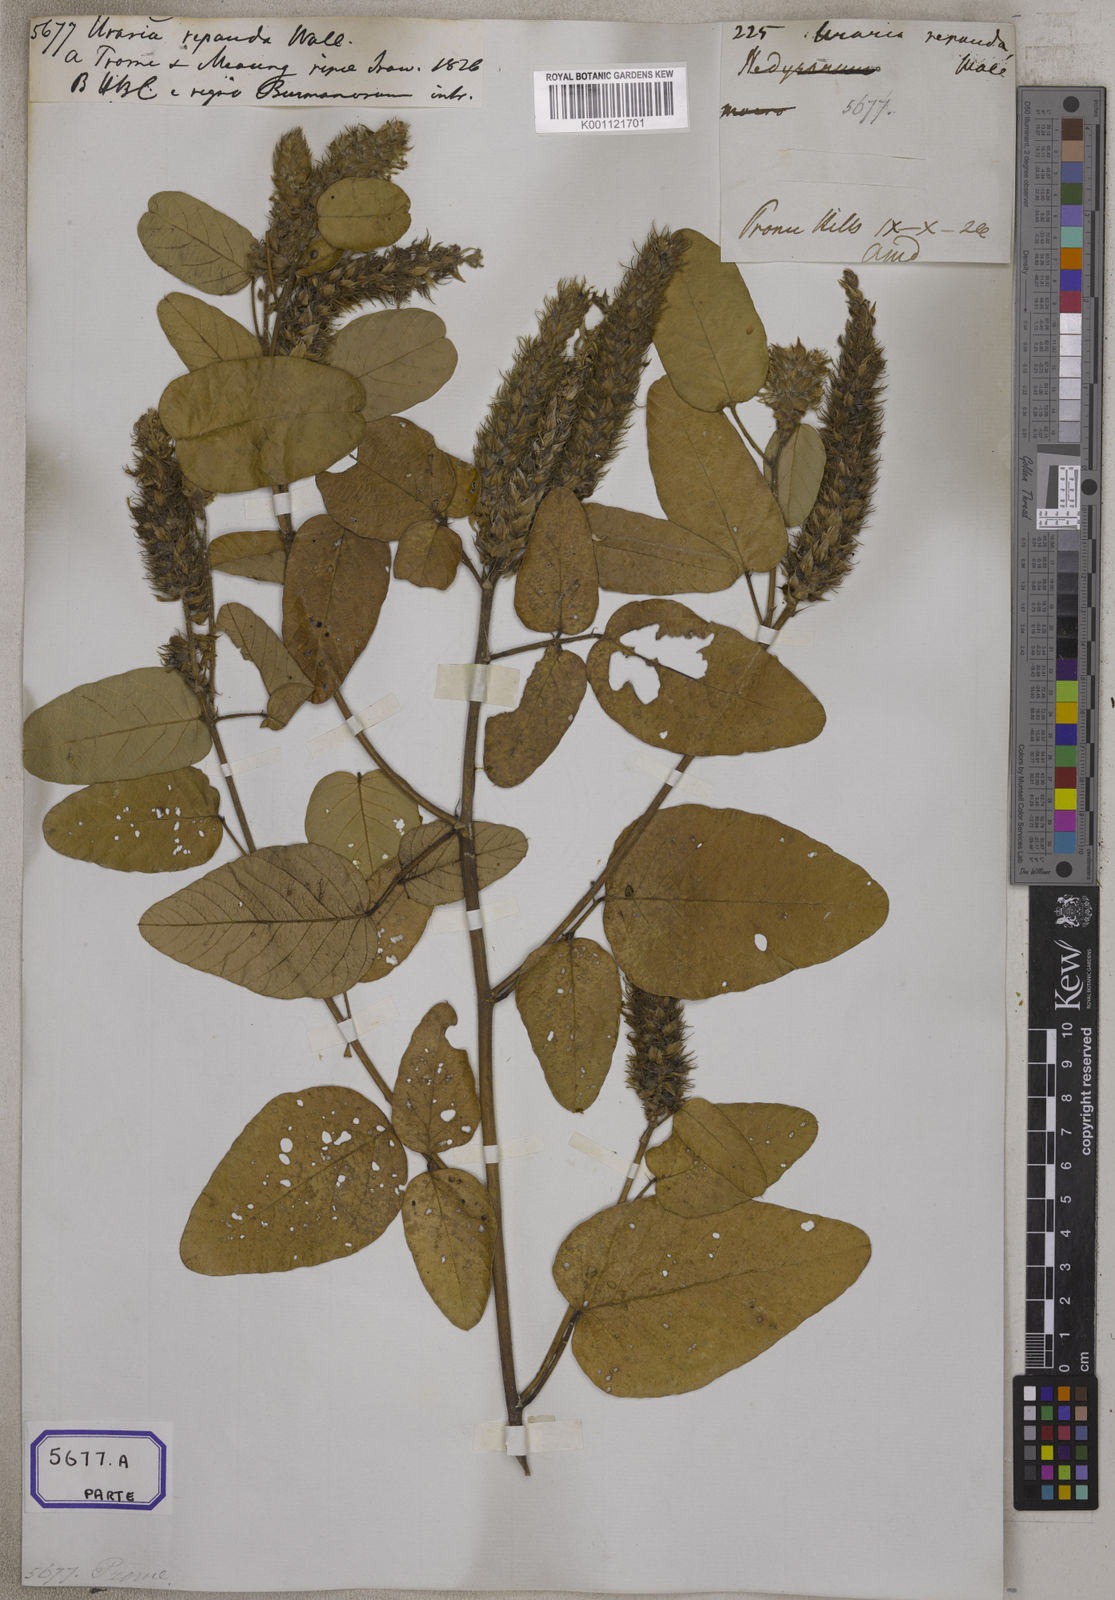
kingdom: Plantae
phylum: Tracheophyta
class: Magnoliopsida
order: Fabales
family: Fabaceae
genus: Uraria
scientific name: Uraria
